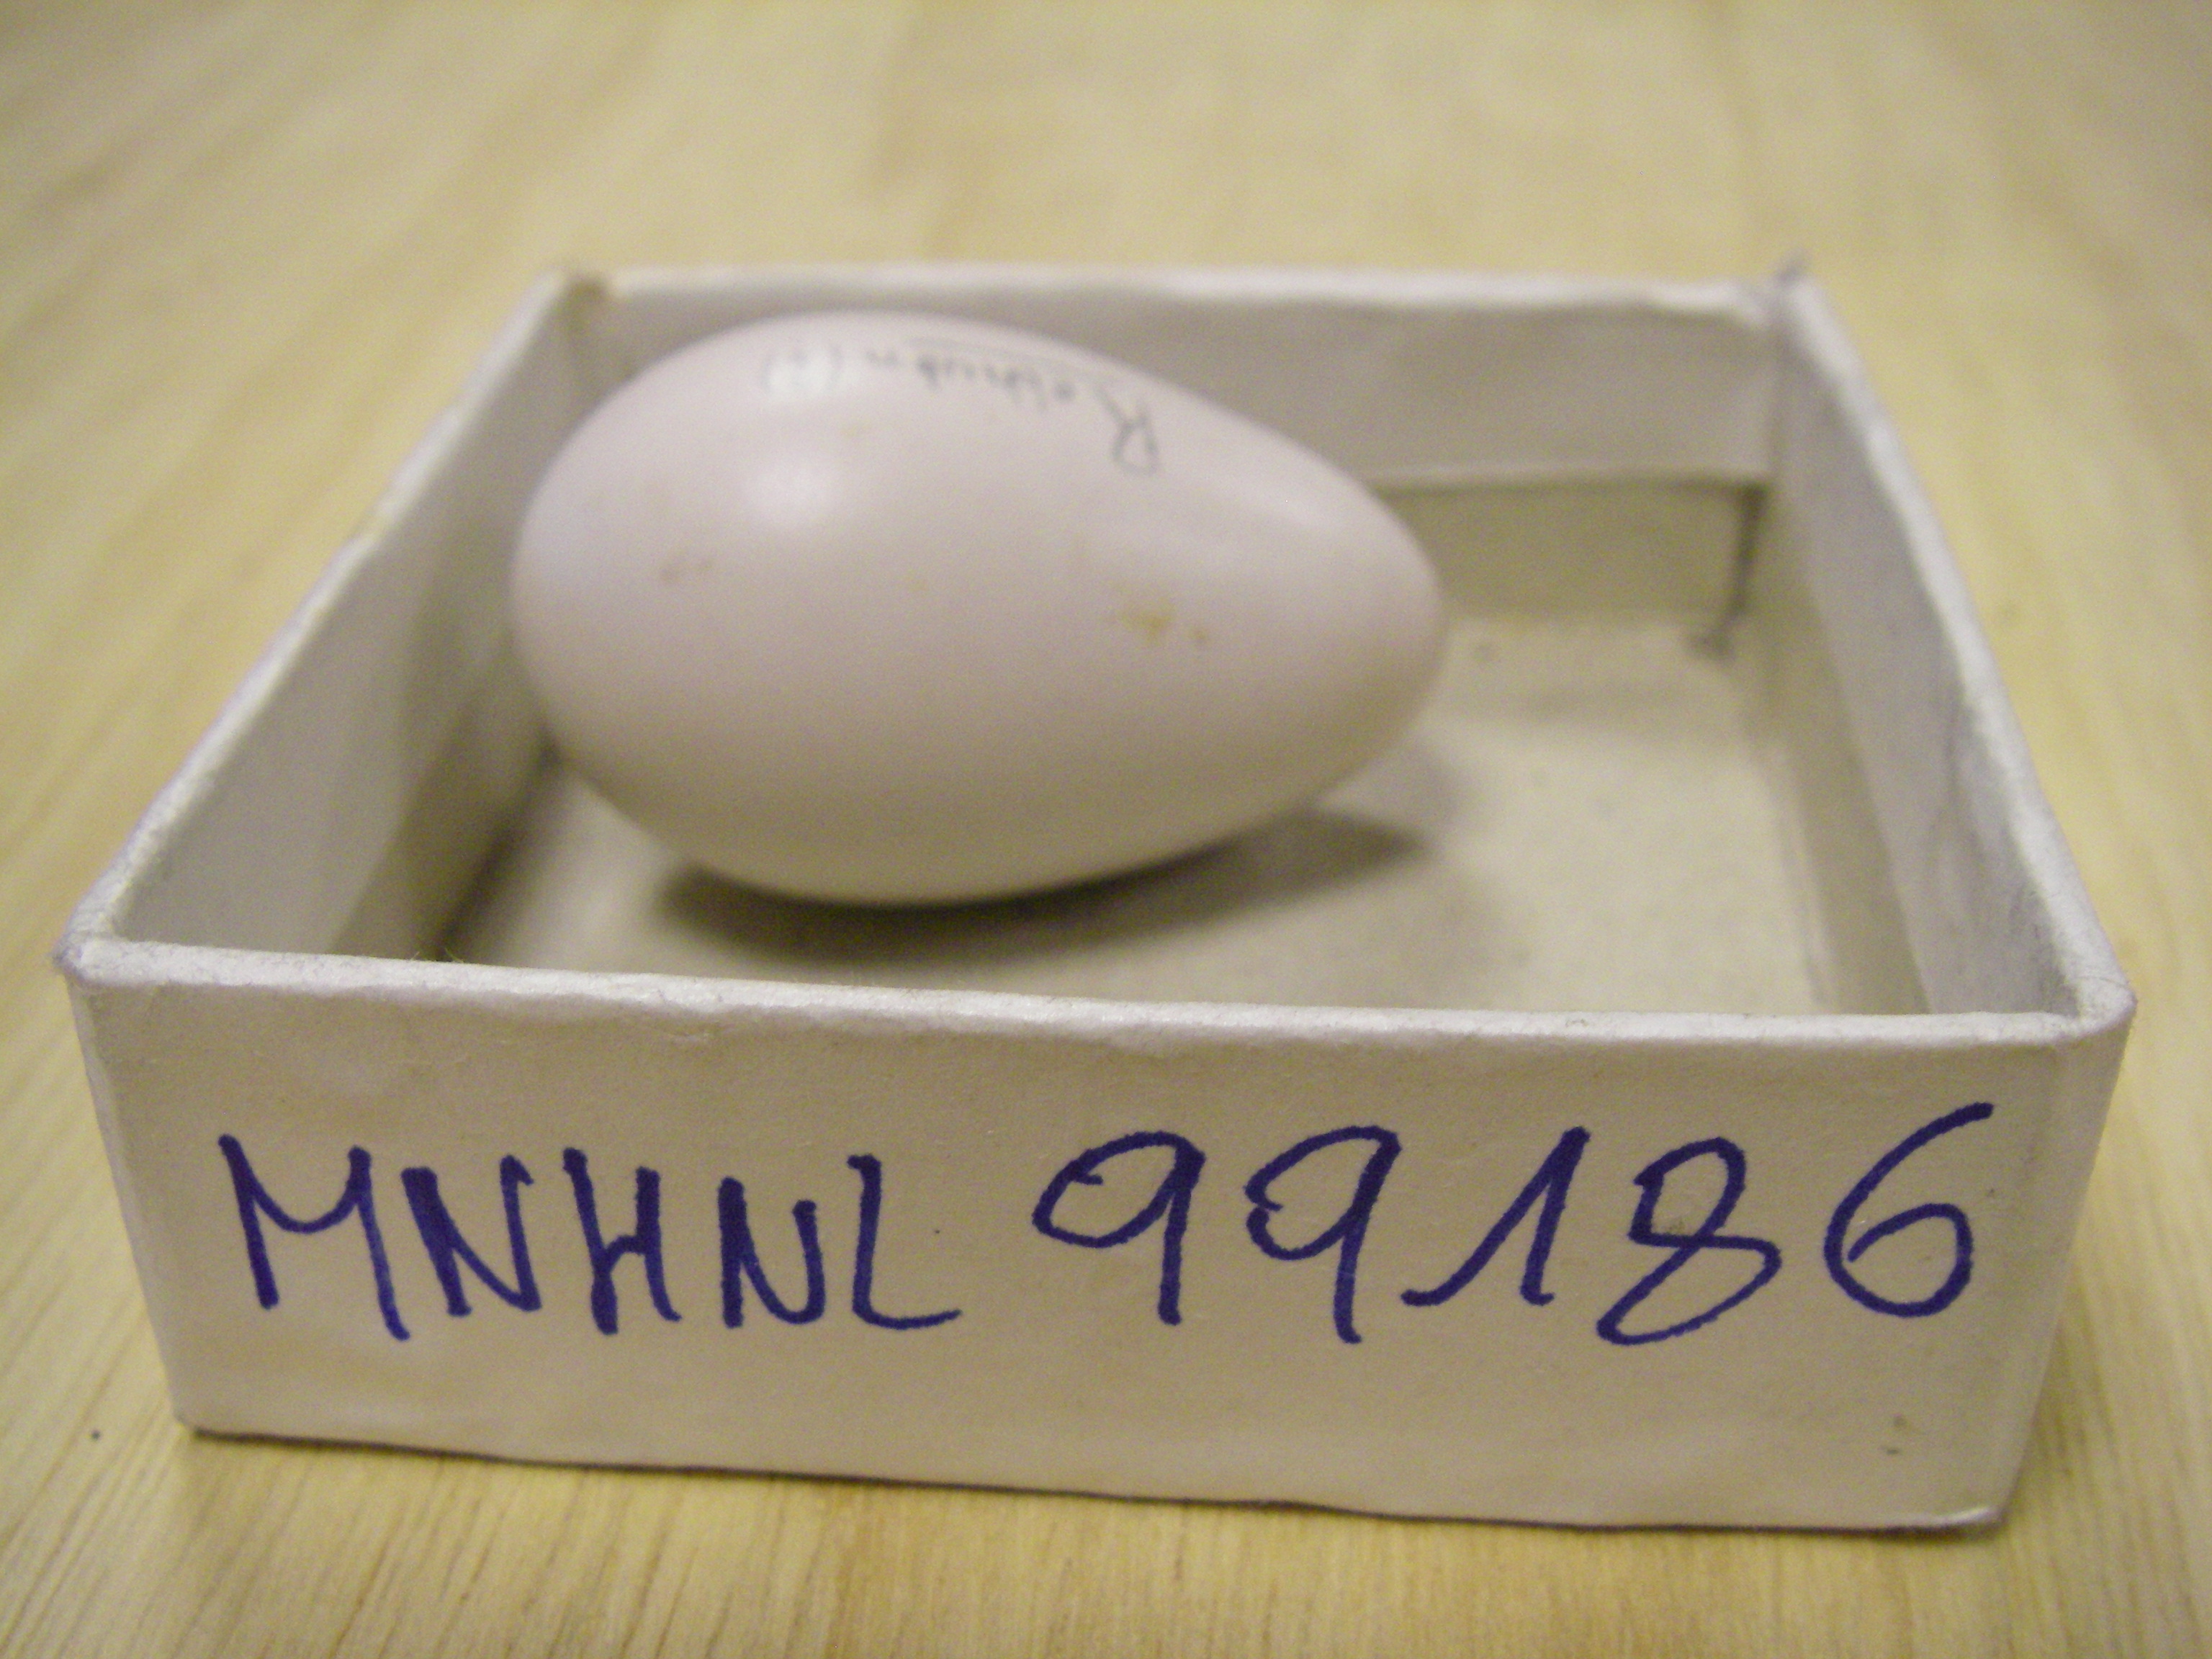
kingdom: Animalia
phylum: Chordata
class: Aves
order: Galliformes
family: Phasianidae
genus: Perdix
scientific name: Perdix perdix
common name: Grey partridge
